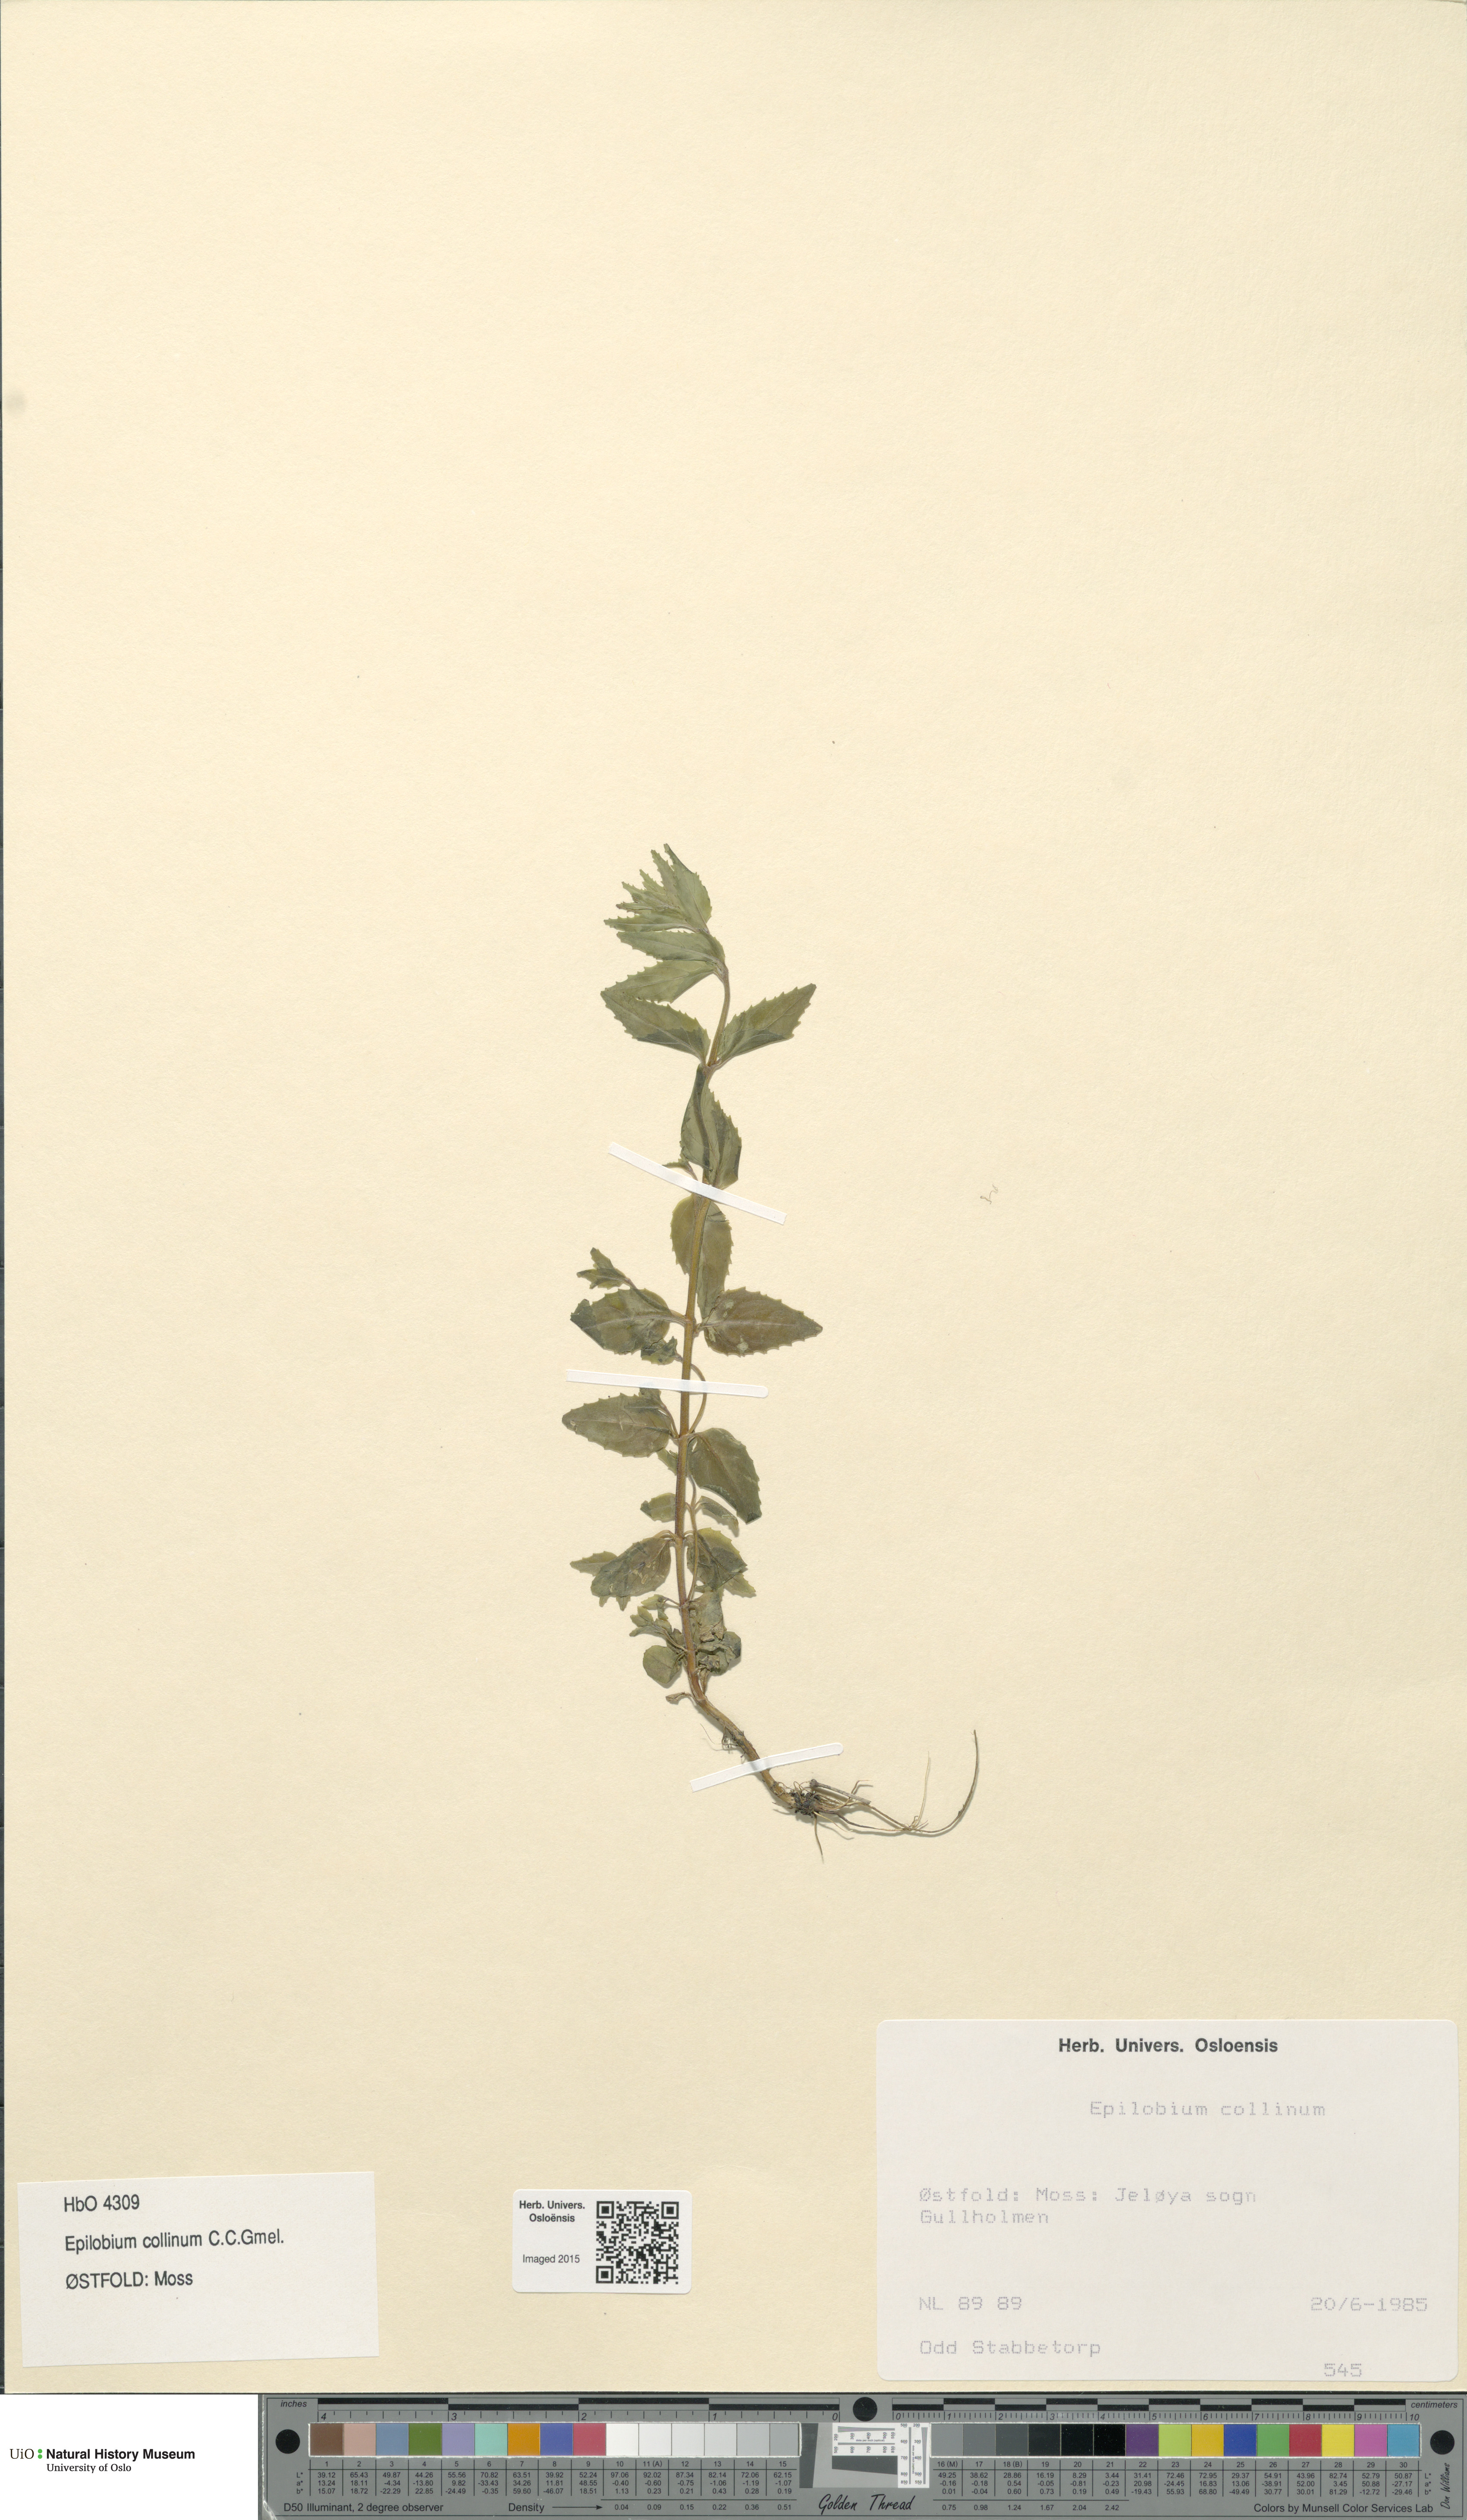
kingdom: Plantae
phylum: Tracheophyta
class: Magnoliopsida
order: Myrtales
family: Onagraceae
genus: Epilobium
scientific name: Epilobium collinum
